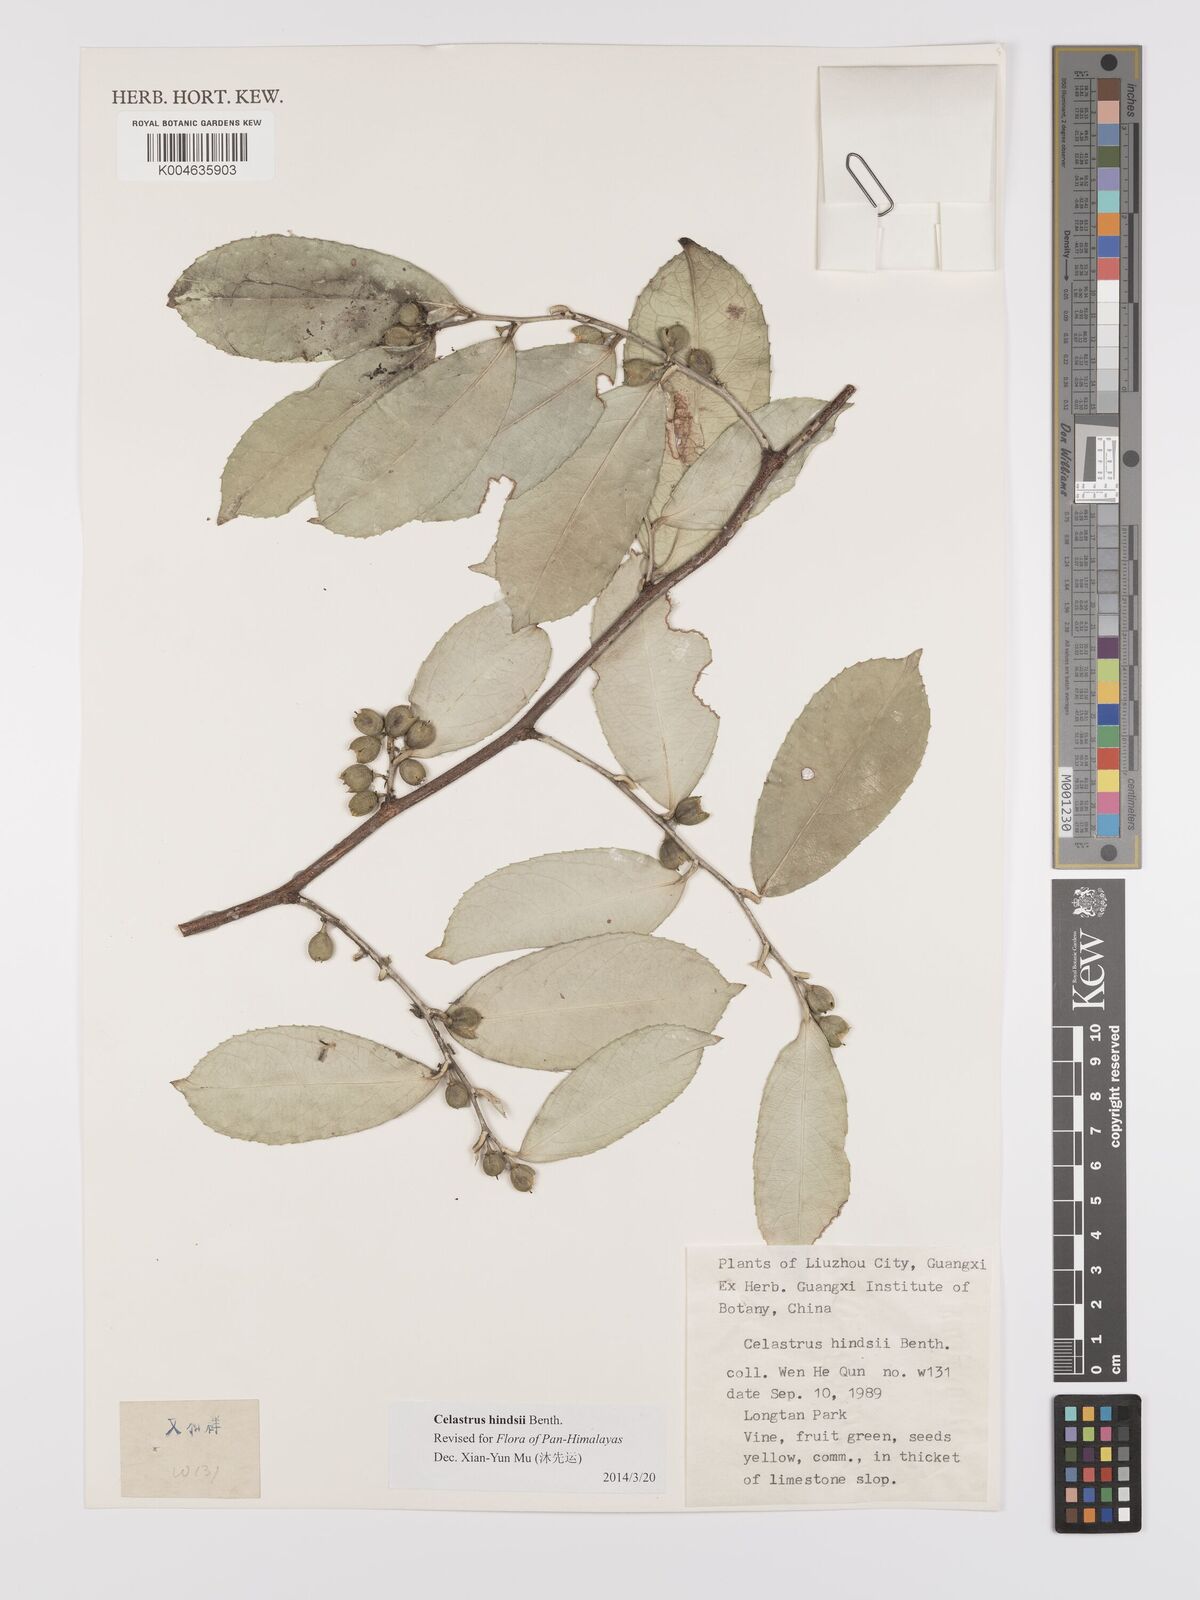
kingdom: Plantae
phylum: Tracheophyta
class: Magnoliopsida
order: Celastrales
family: Celastraceae
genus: Celastrus
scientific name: Celastrus hindsii
